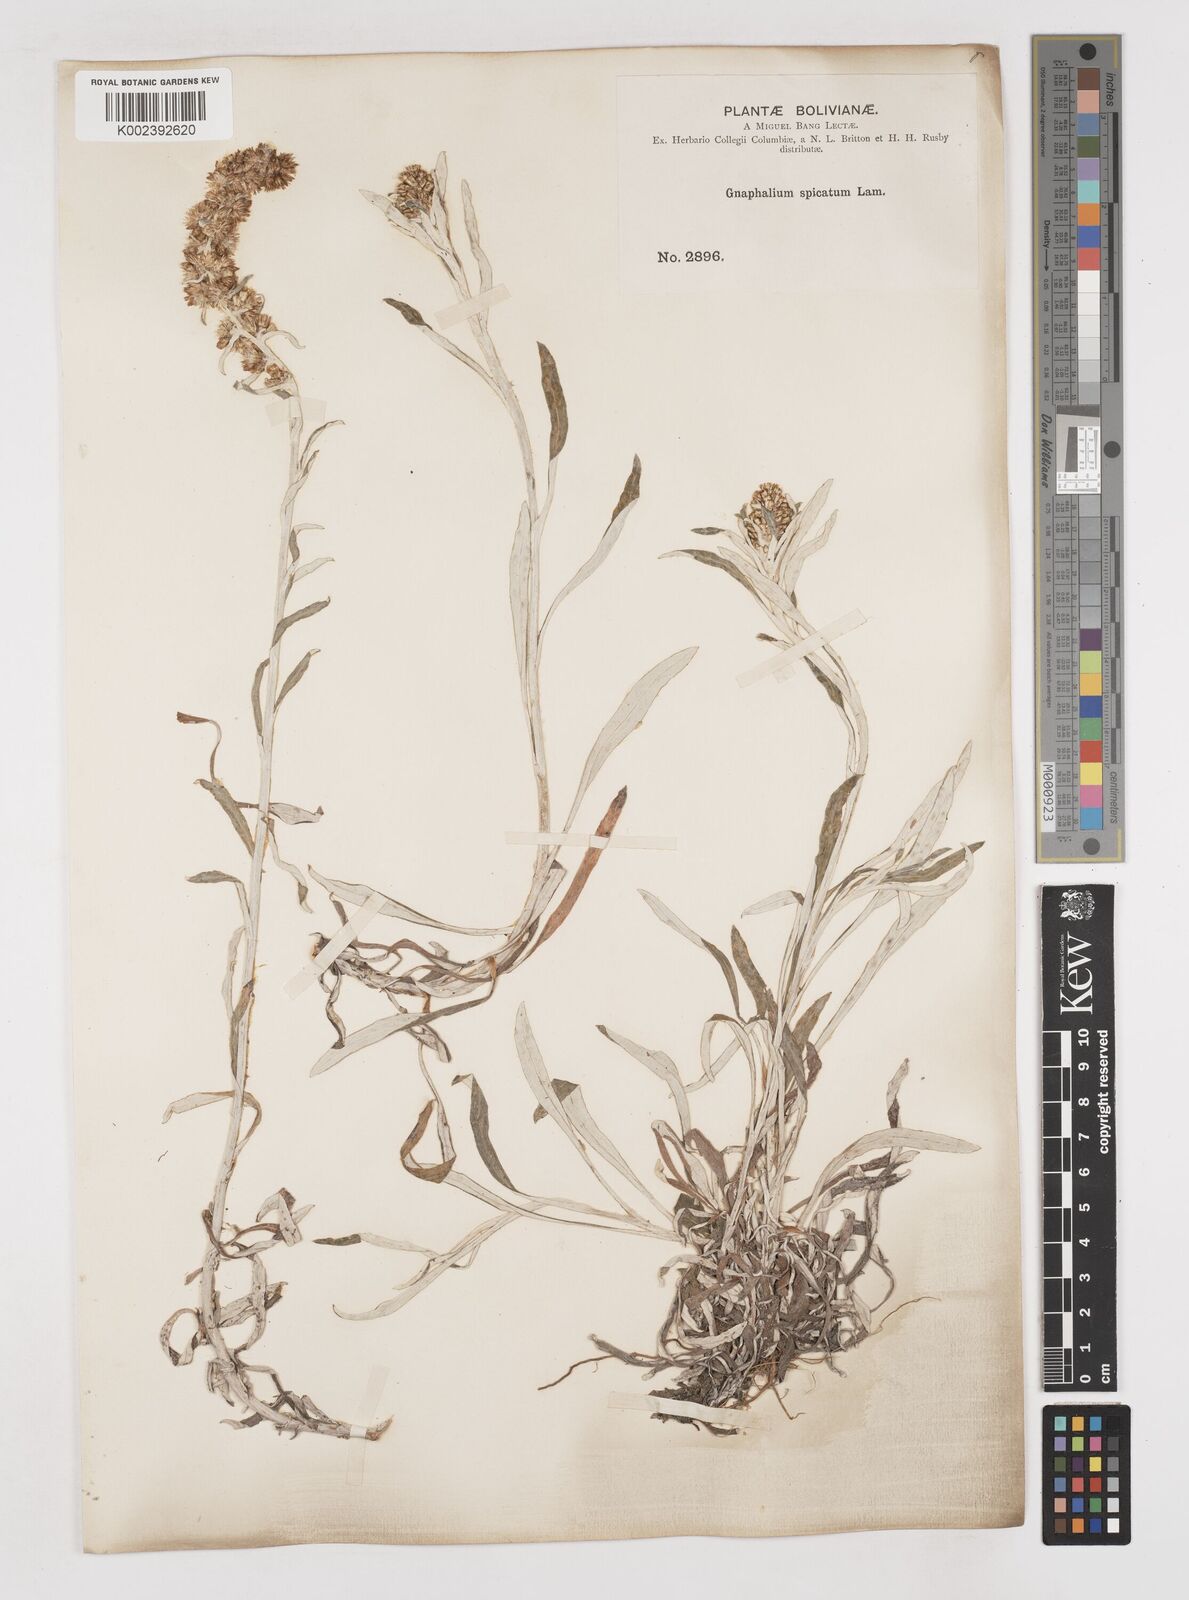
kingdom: Plantae
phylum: Tracheophyta
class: Magnoliopsida
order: Asterales
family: Asteraceae
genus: Gamochaeta
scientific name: Gamochaeta americana
